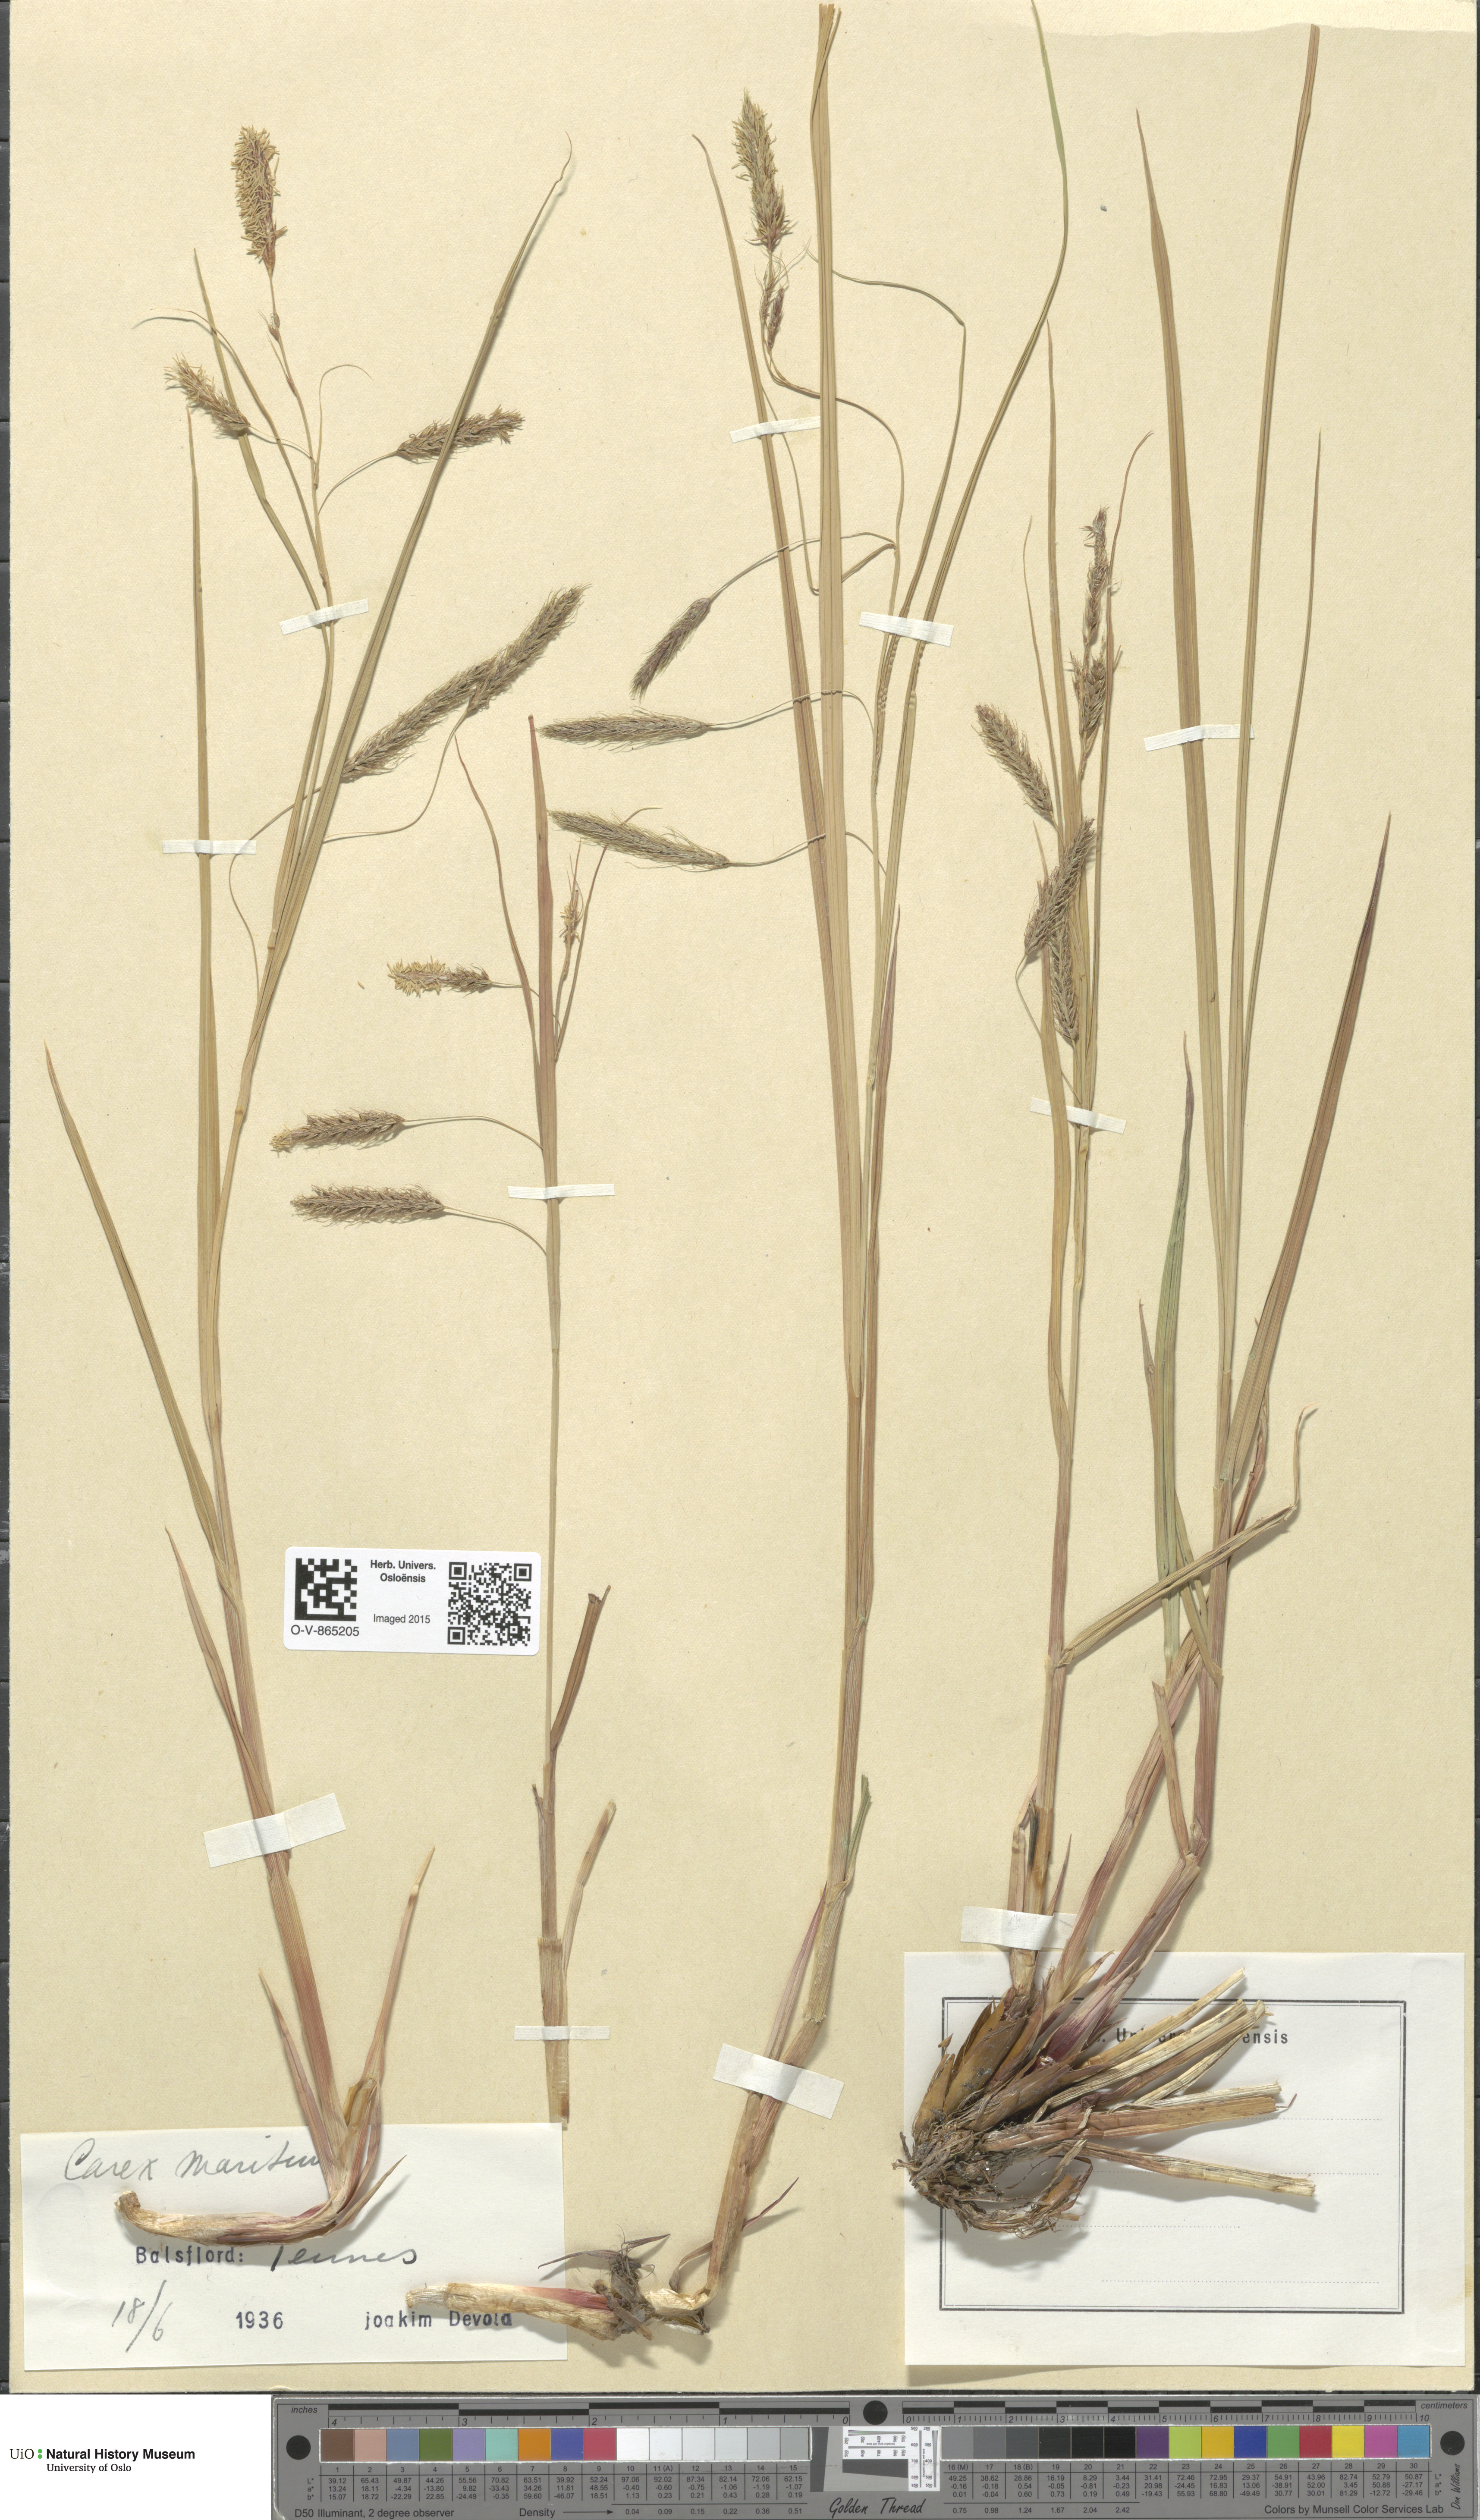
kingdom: Plantae
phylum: Tracheophyta
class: Liliopsida
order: Poales
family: Cyperaceae
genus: Carex
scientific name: Carex paleacea
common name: Chaffy sedge
